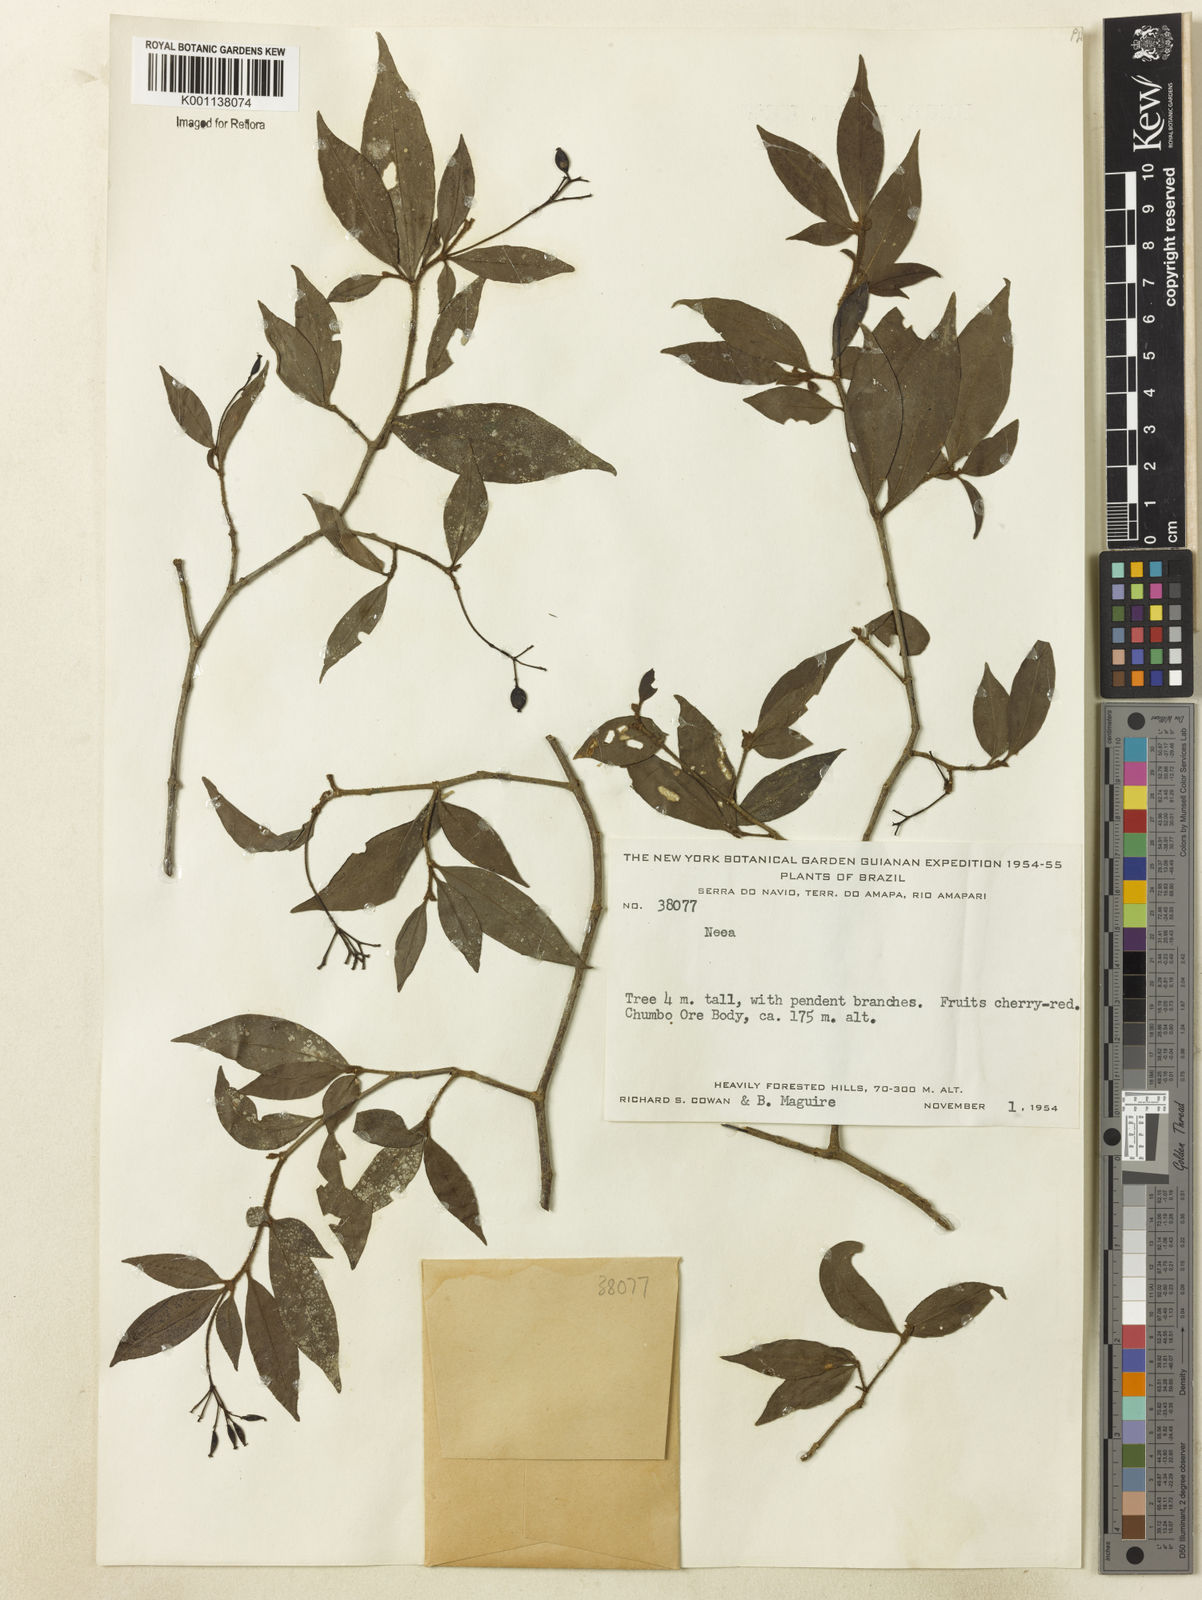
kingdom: Plantae
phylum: Tracheophyta
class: Magnoliopsida
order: Caryophyllales
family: Nyctaginaceae
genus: Neea
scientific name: Neea
